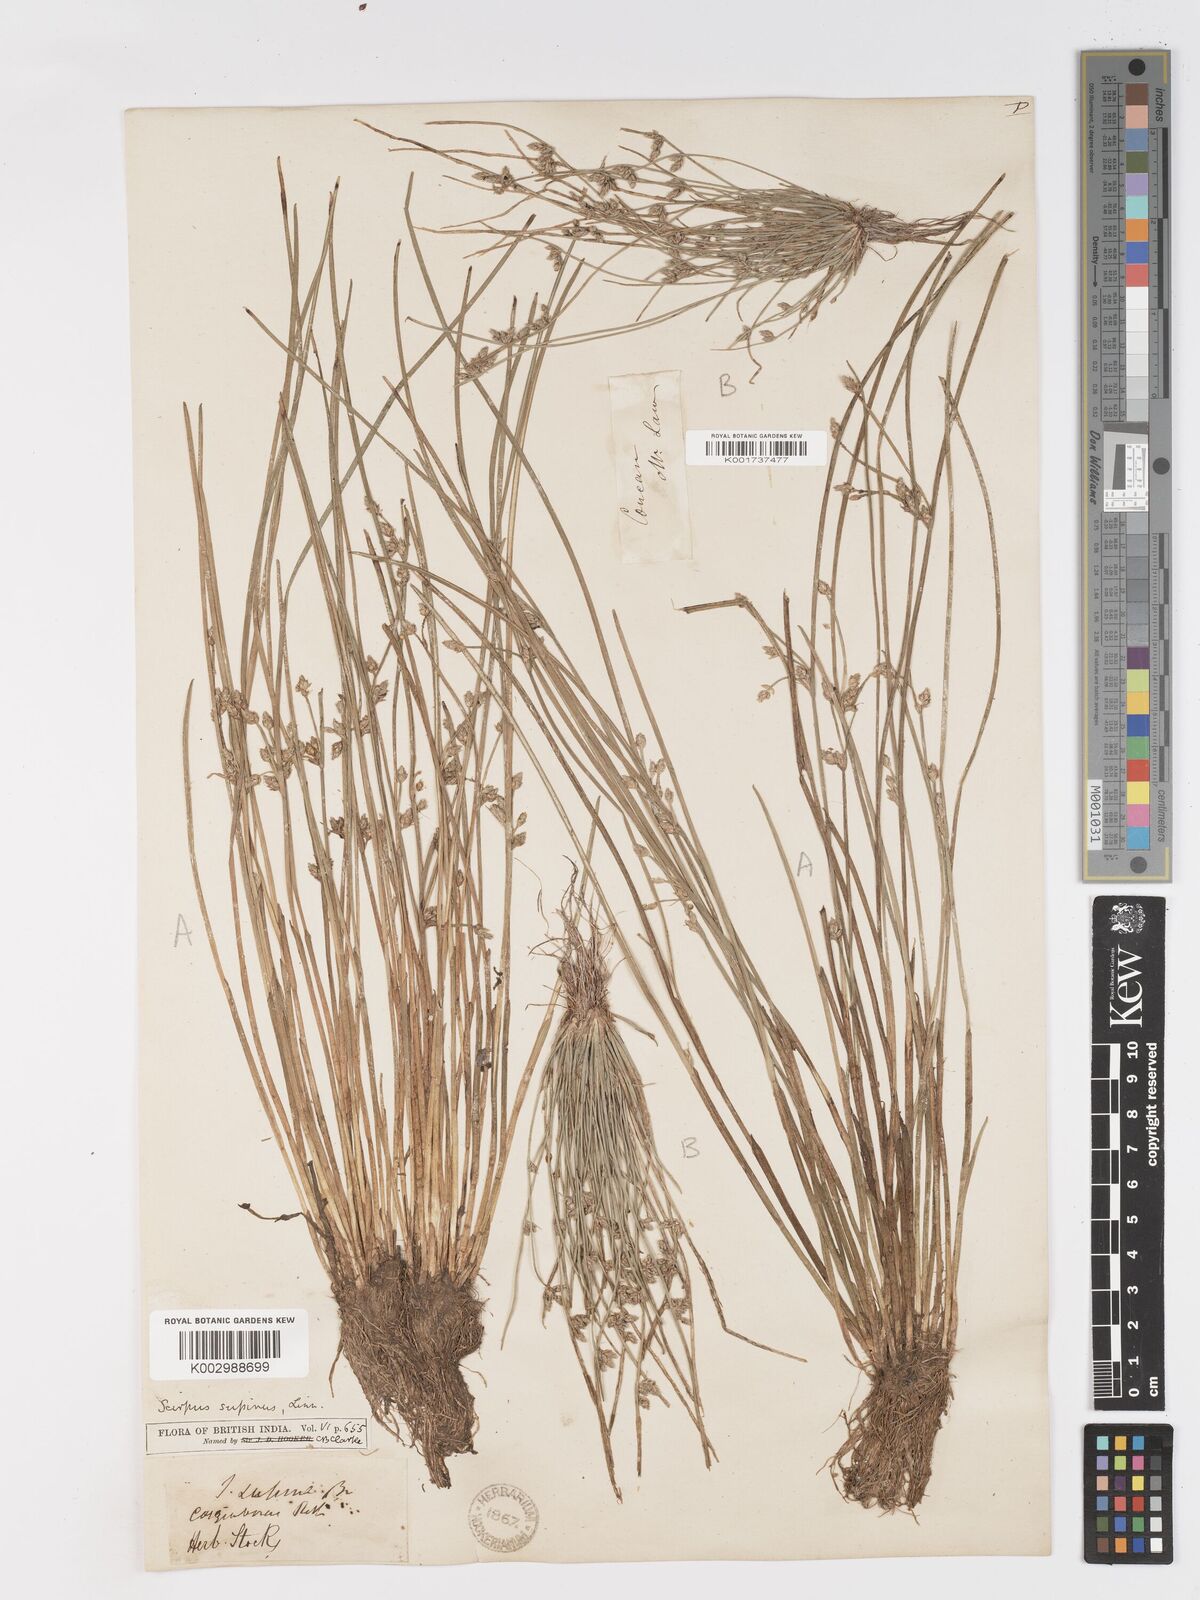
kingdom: Plantae
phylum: Tracheophyta
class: Liliopsida
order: Poales
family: Cyperaceae
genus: Schoenoplectiella
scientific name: Schoenoplectiella lateriflora
